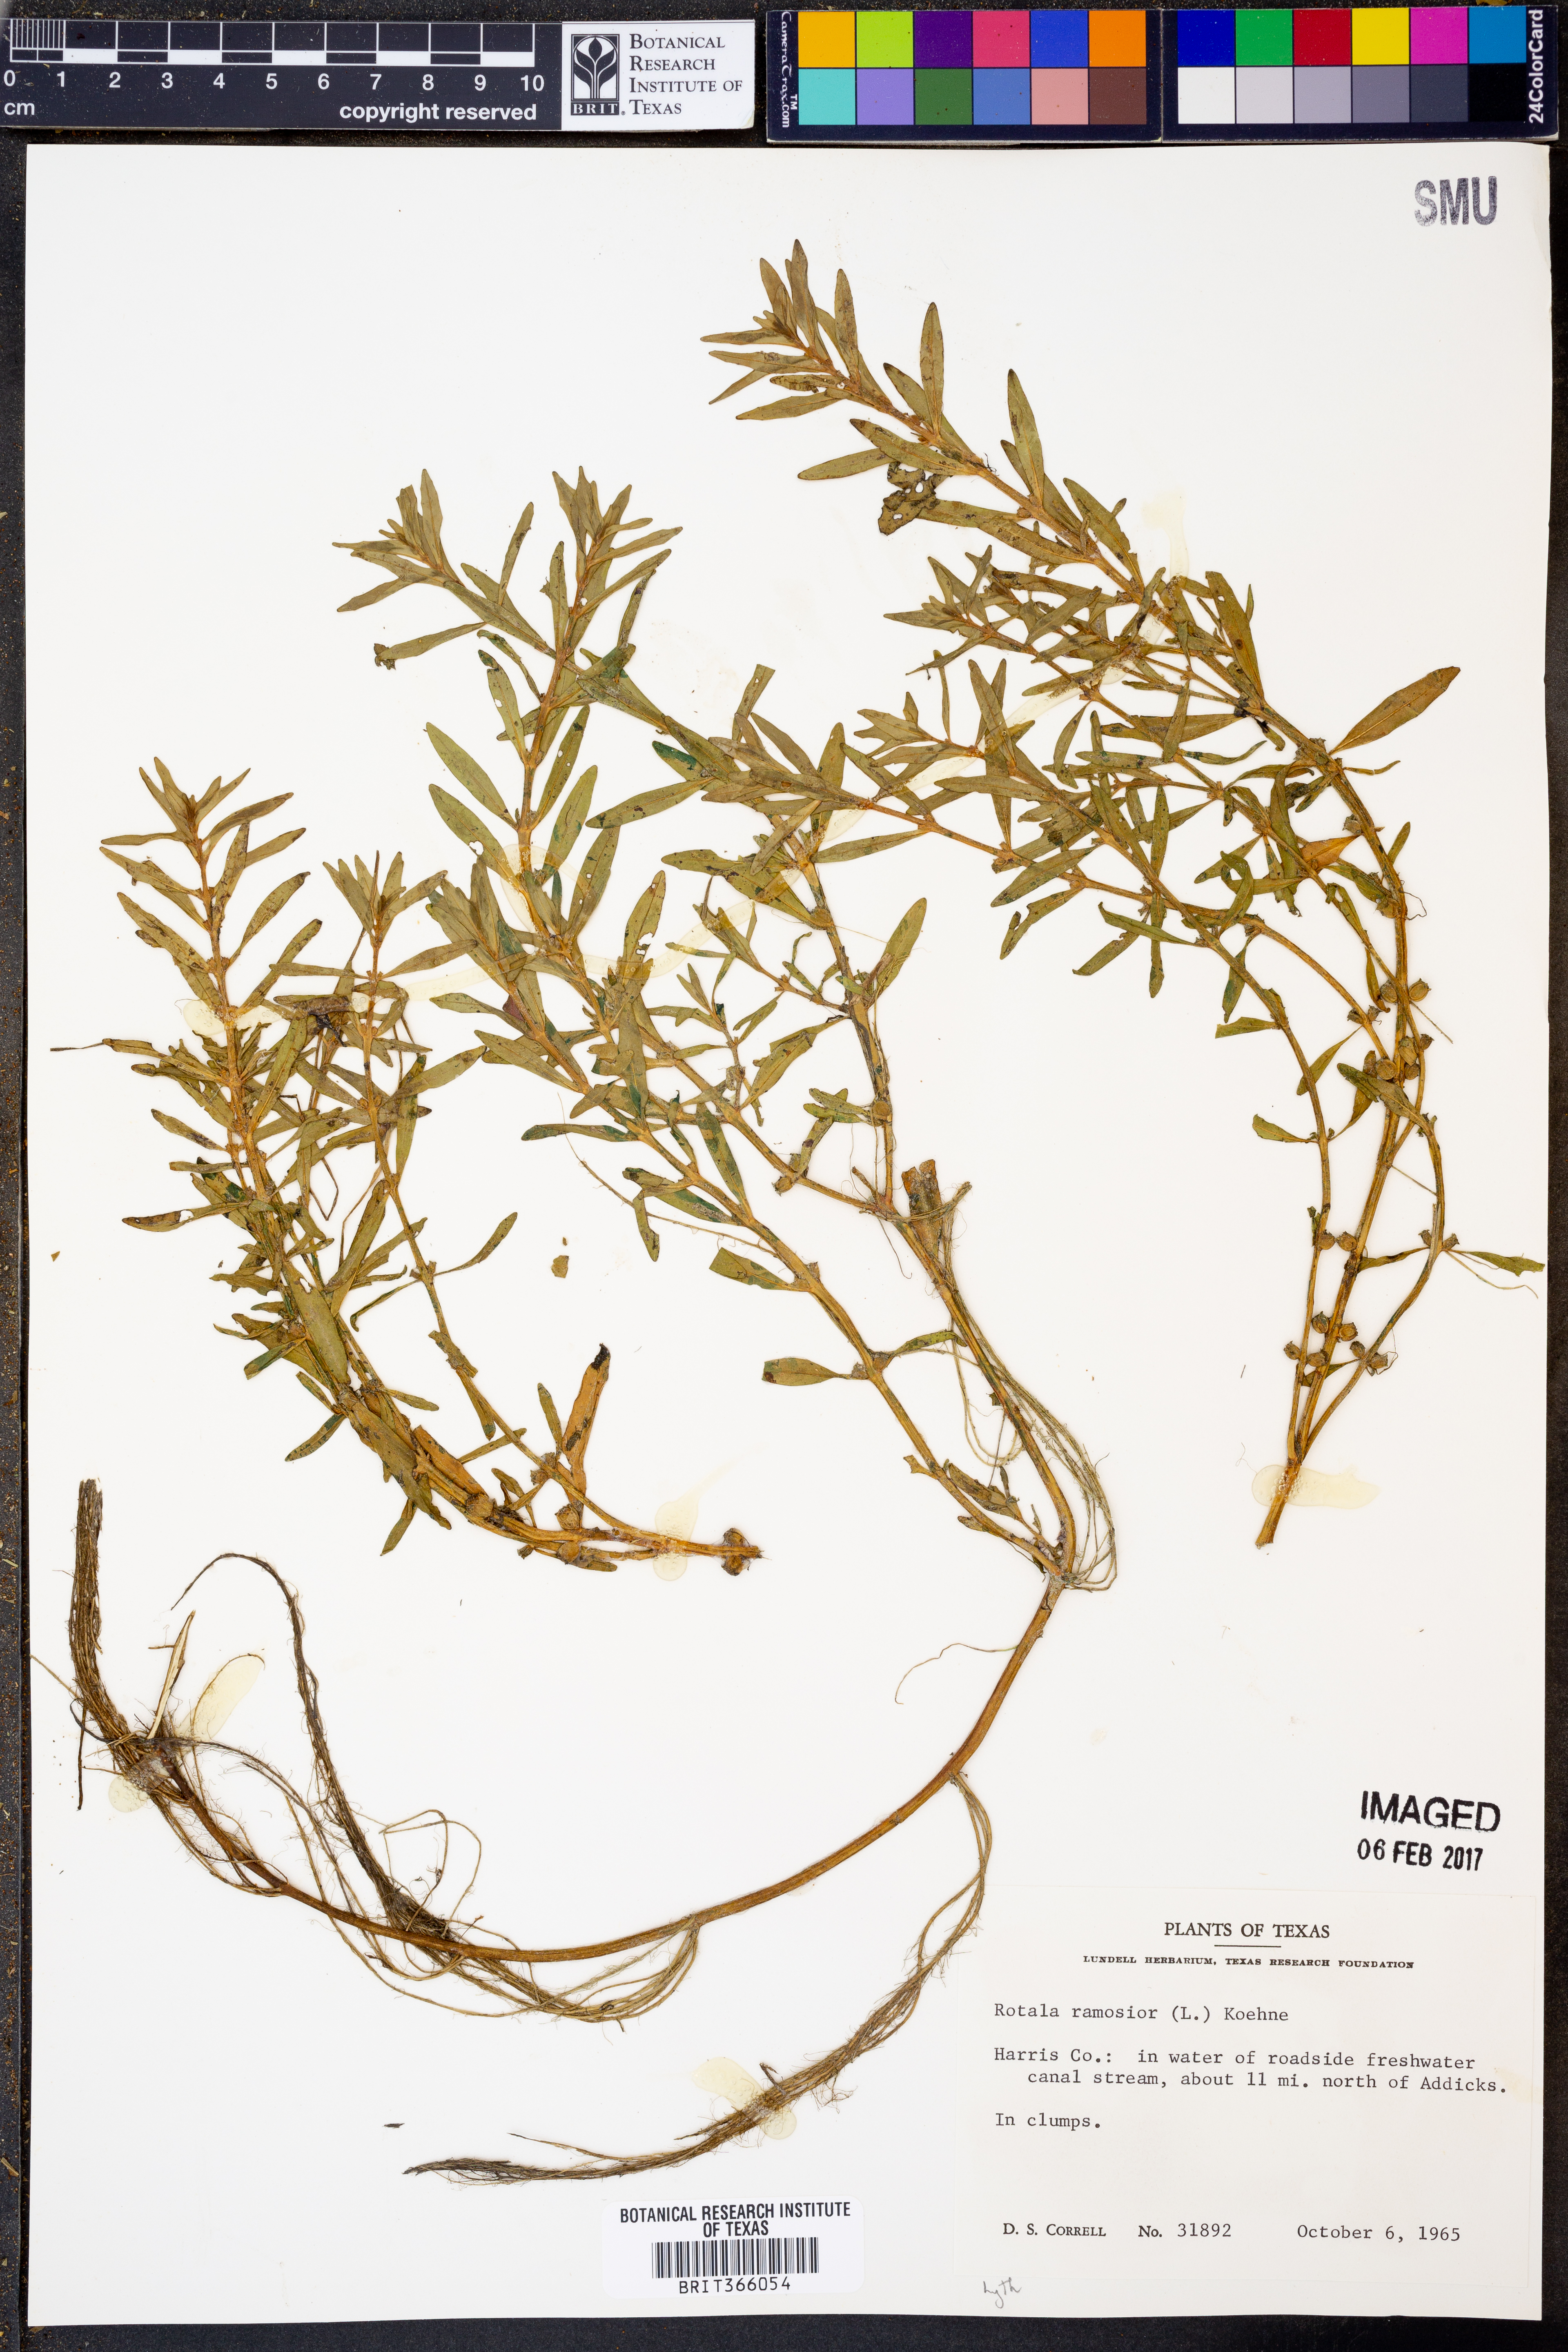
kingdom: Plantae
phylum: Tracheophyta
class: Magnoliopsida
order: Myrtales
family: Lythraceae
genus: Rotala
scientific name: Rotala ramosior
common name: Lowland rotala
